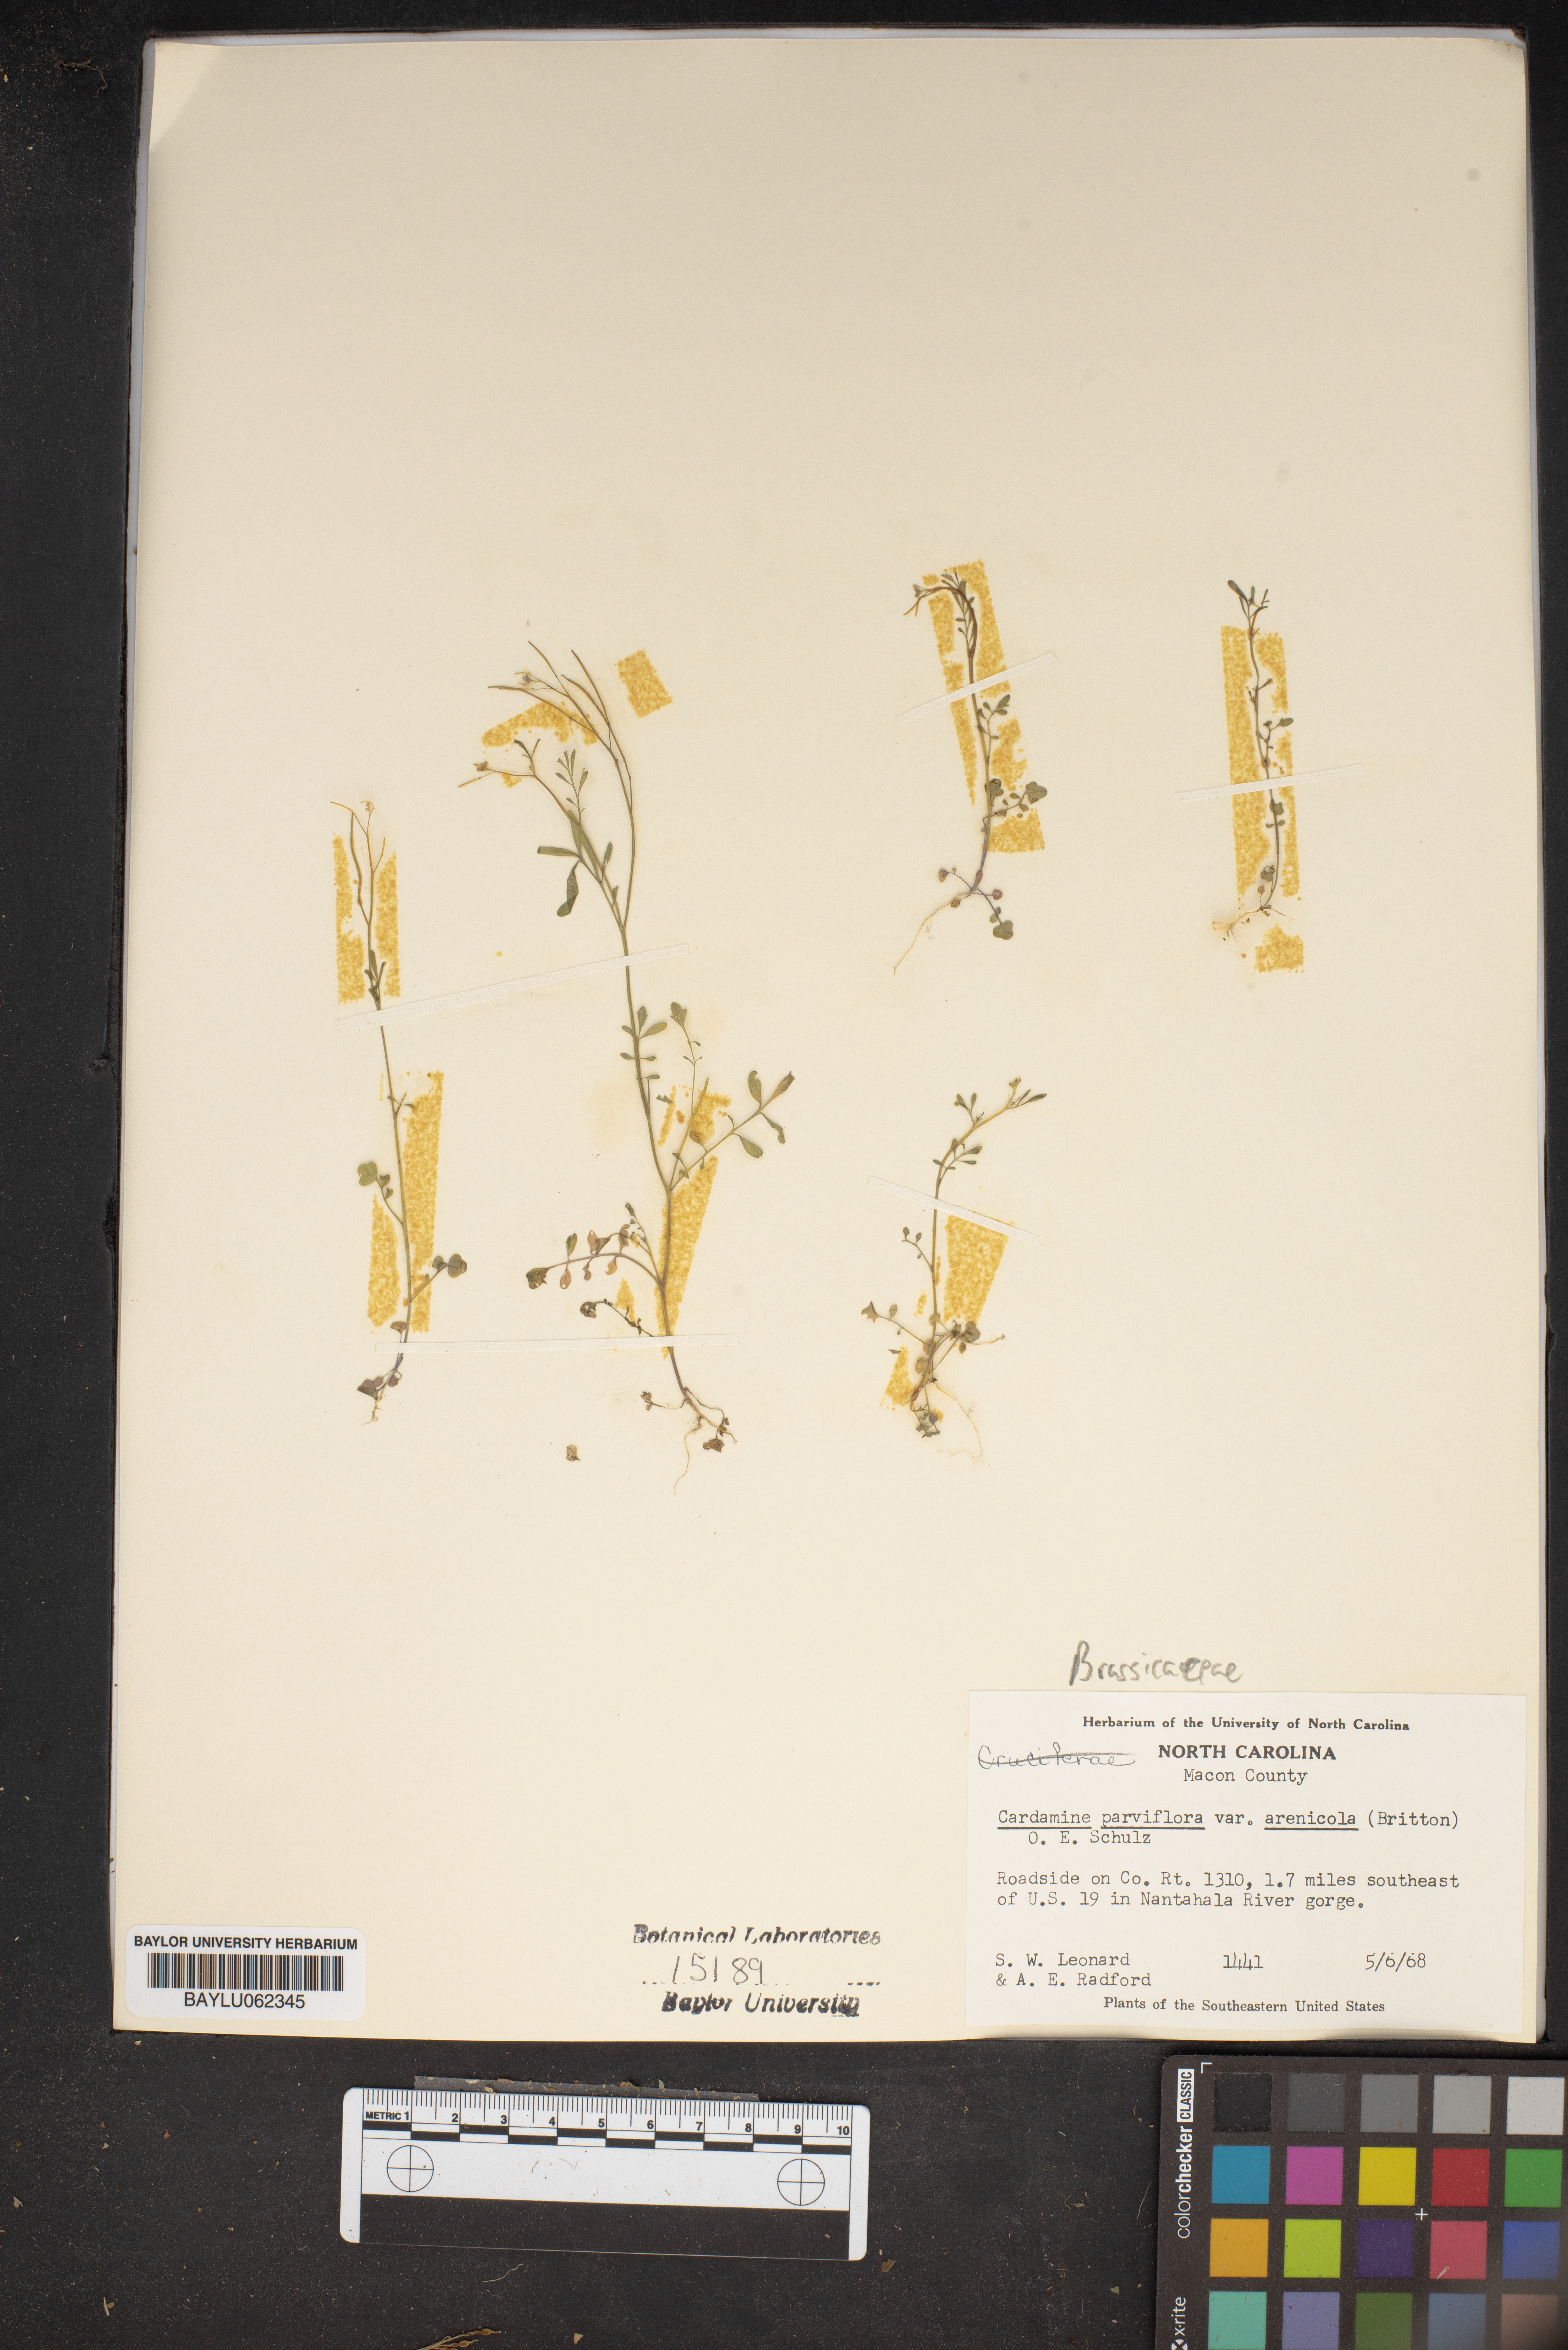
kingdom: Plantae
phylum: Tracheophyta
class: Magnoliopsida
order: Brassicales
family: Brassicaceae
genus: Cardamine
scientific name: Cardamine parviflora
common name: Sand bittercress
